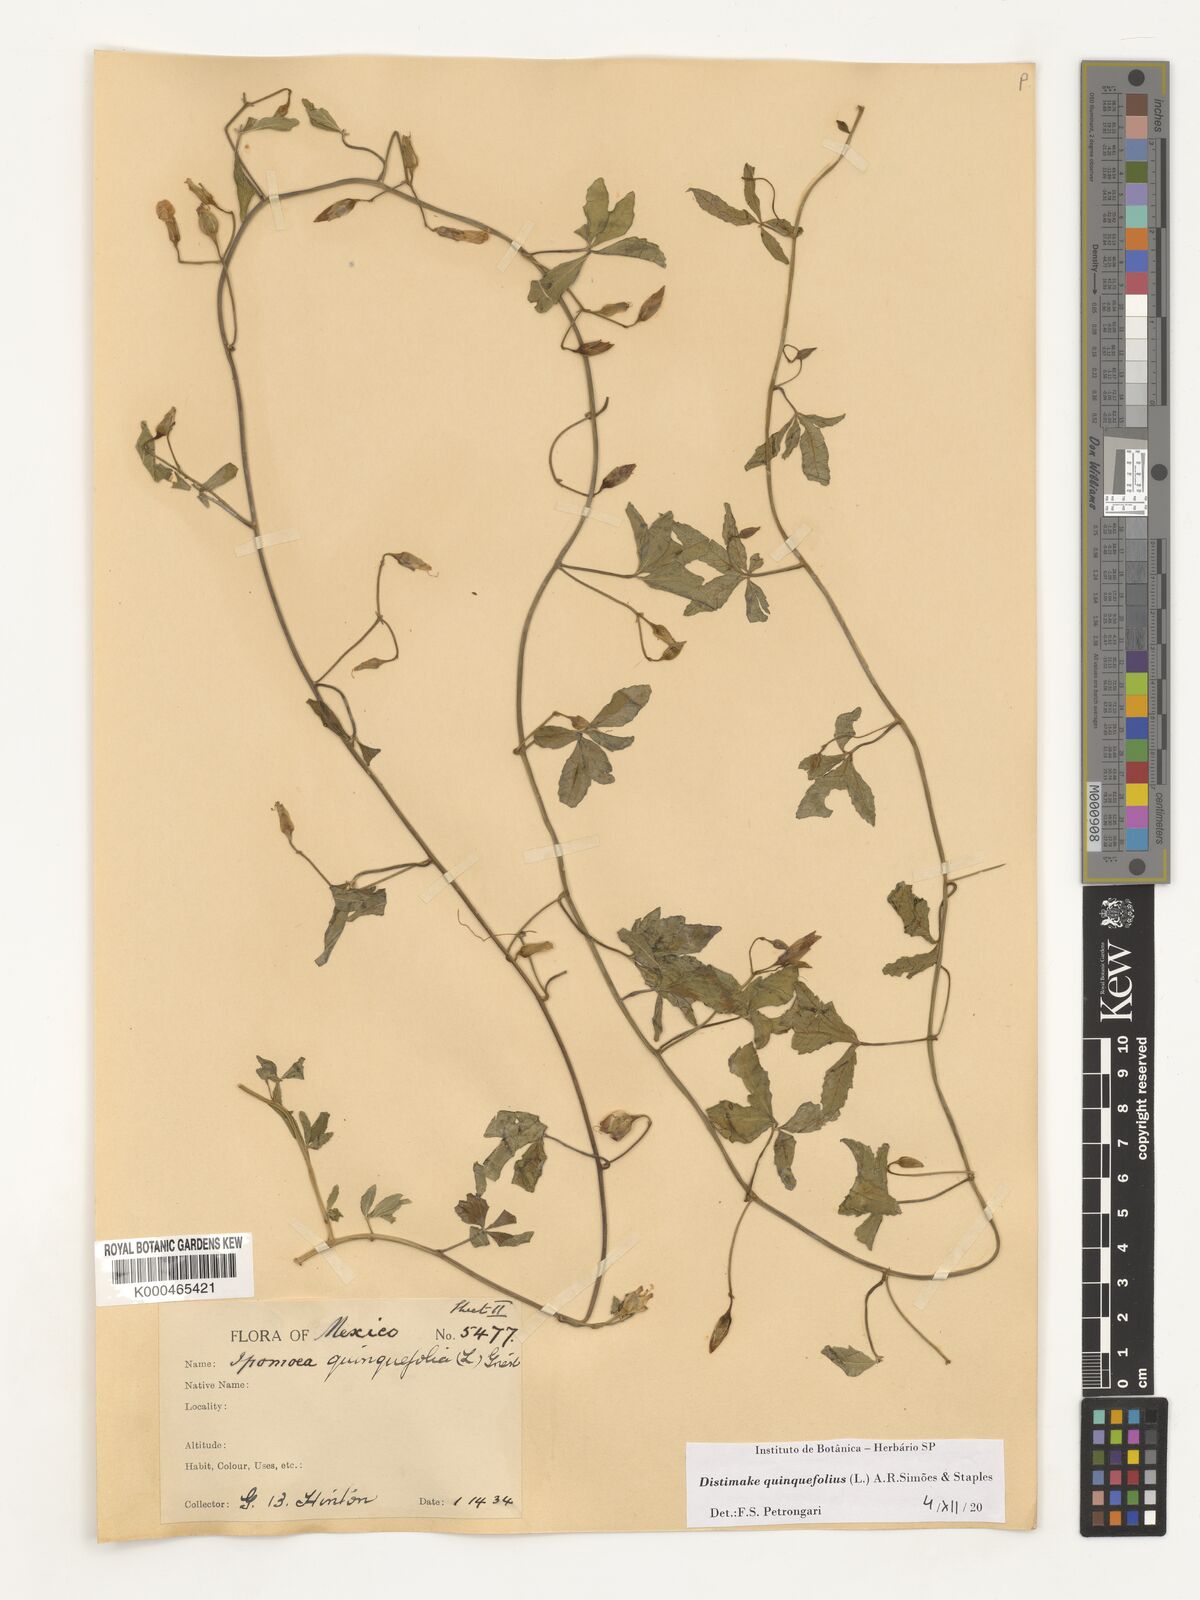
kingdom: Plantae
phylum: Tracheophyta
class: Magnoliopsida
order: Solanales
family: Convolvulaceae
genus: Distimake
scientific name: Distimake quinquefolius
